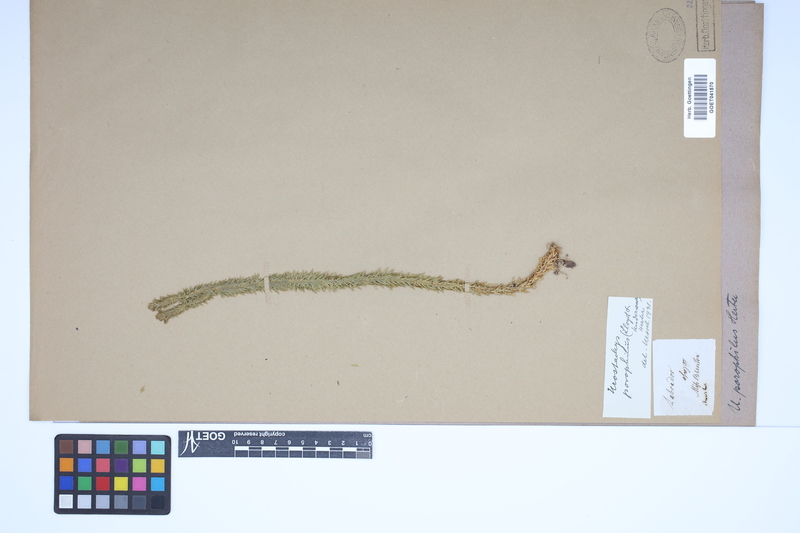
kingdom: Plantae
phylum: Tracheophyta
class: Lycopodiopsida
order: Lycopodiales
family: Lycopodiaceae
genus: Huperzia
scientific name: Huperzia porophila
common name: Rock clubmoss
